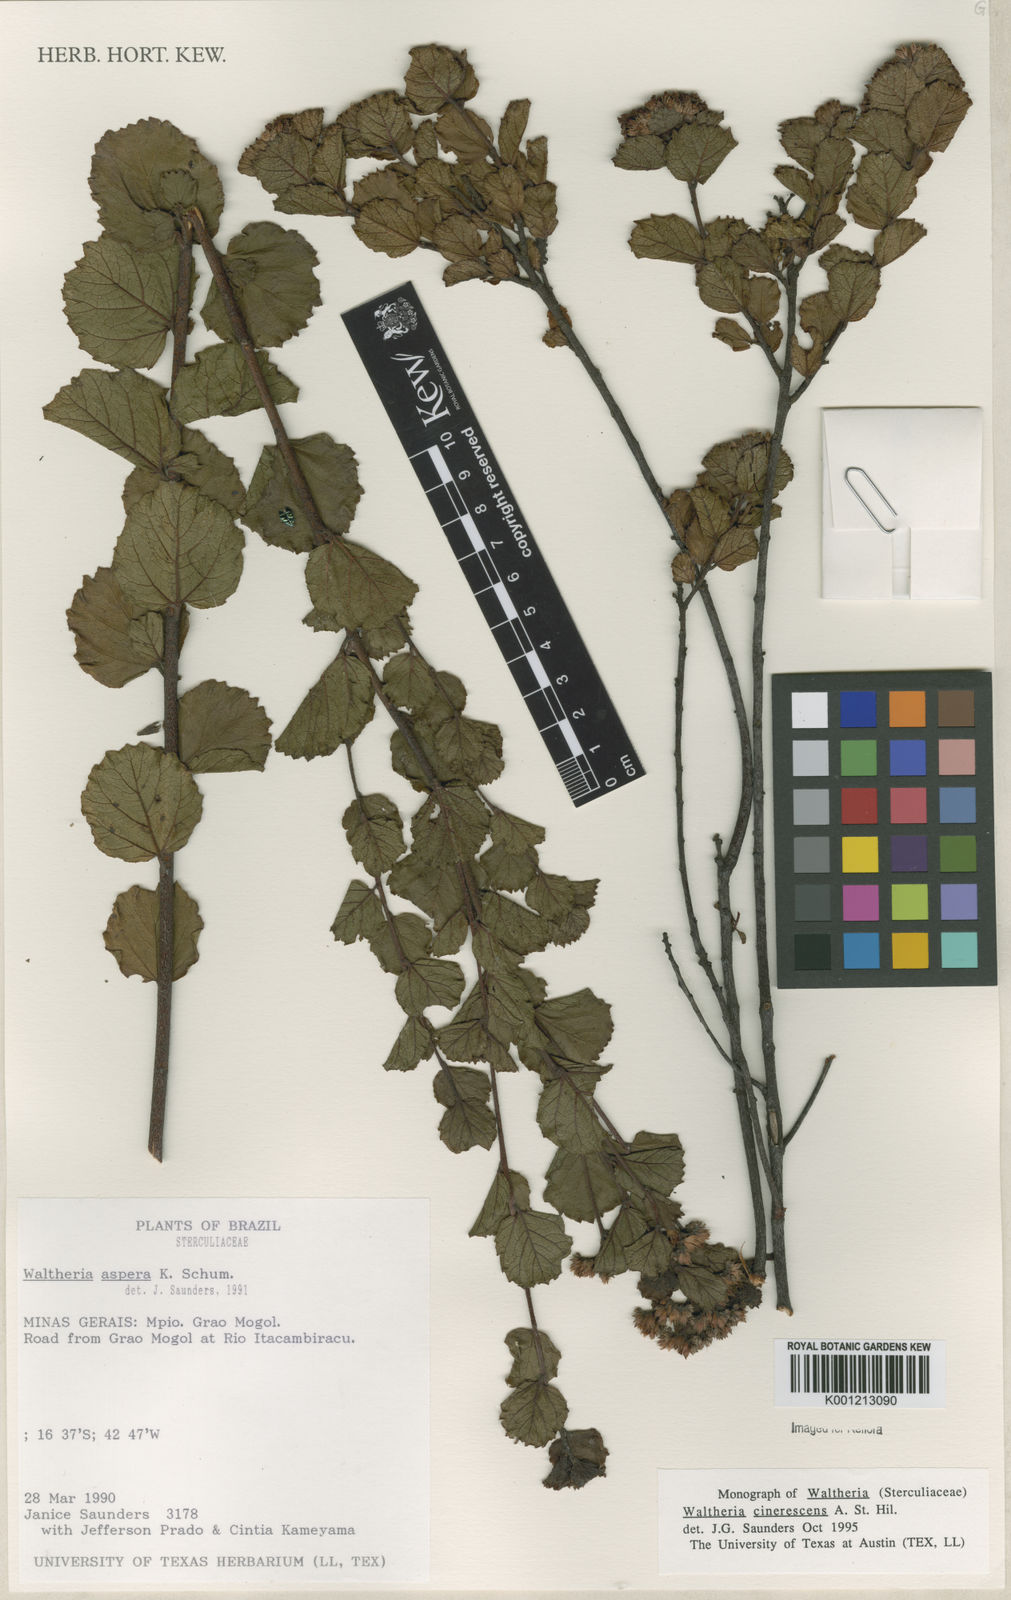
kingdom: Plantae
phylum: Tracheophyta
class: Magnoliopsida
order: Malvales
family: Malvaceae
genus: Waltheria
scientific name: Waltheria cinerescens
